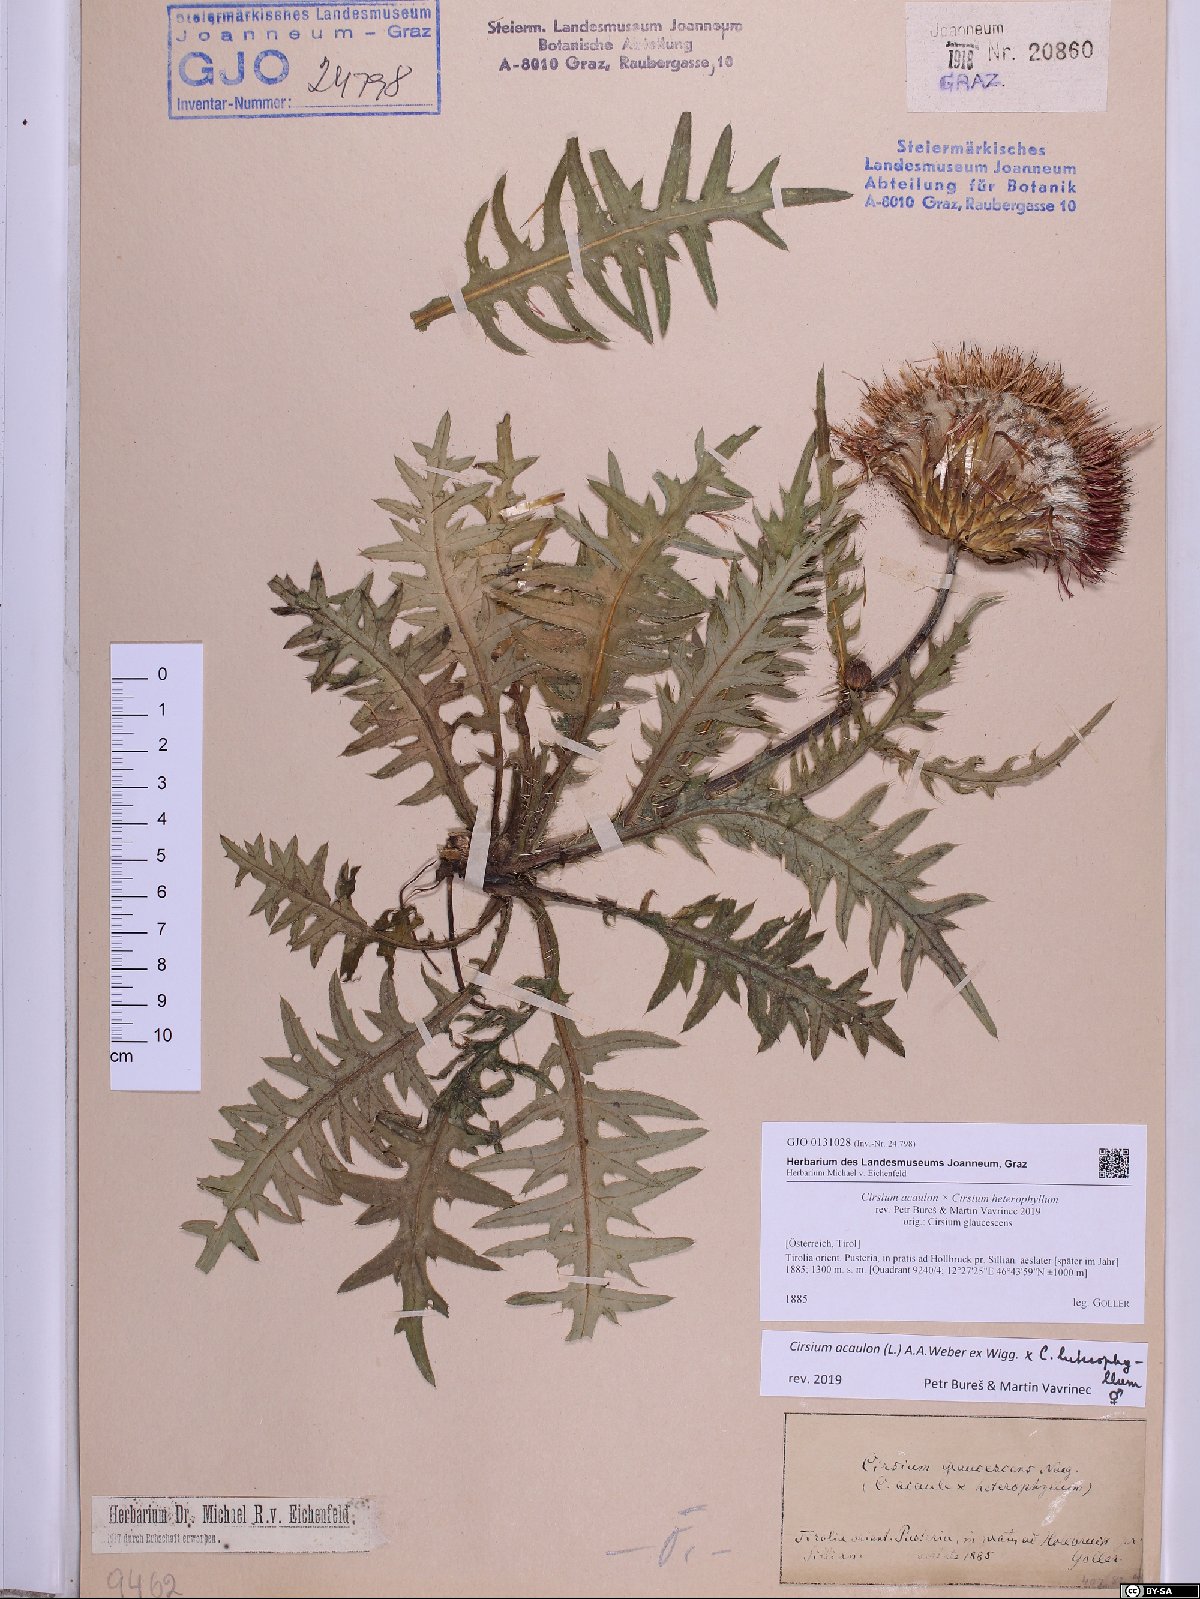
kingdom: Plantae
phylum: Tracheophyta
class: Magnoliopsida
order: Asterales
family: Asteraceae
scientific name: Asteraceae
